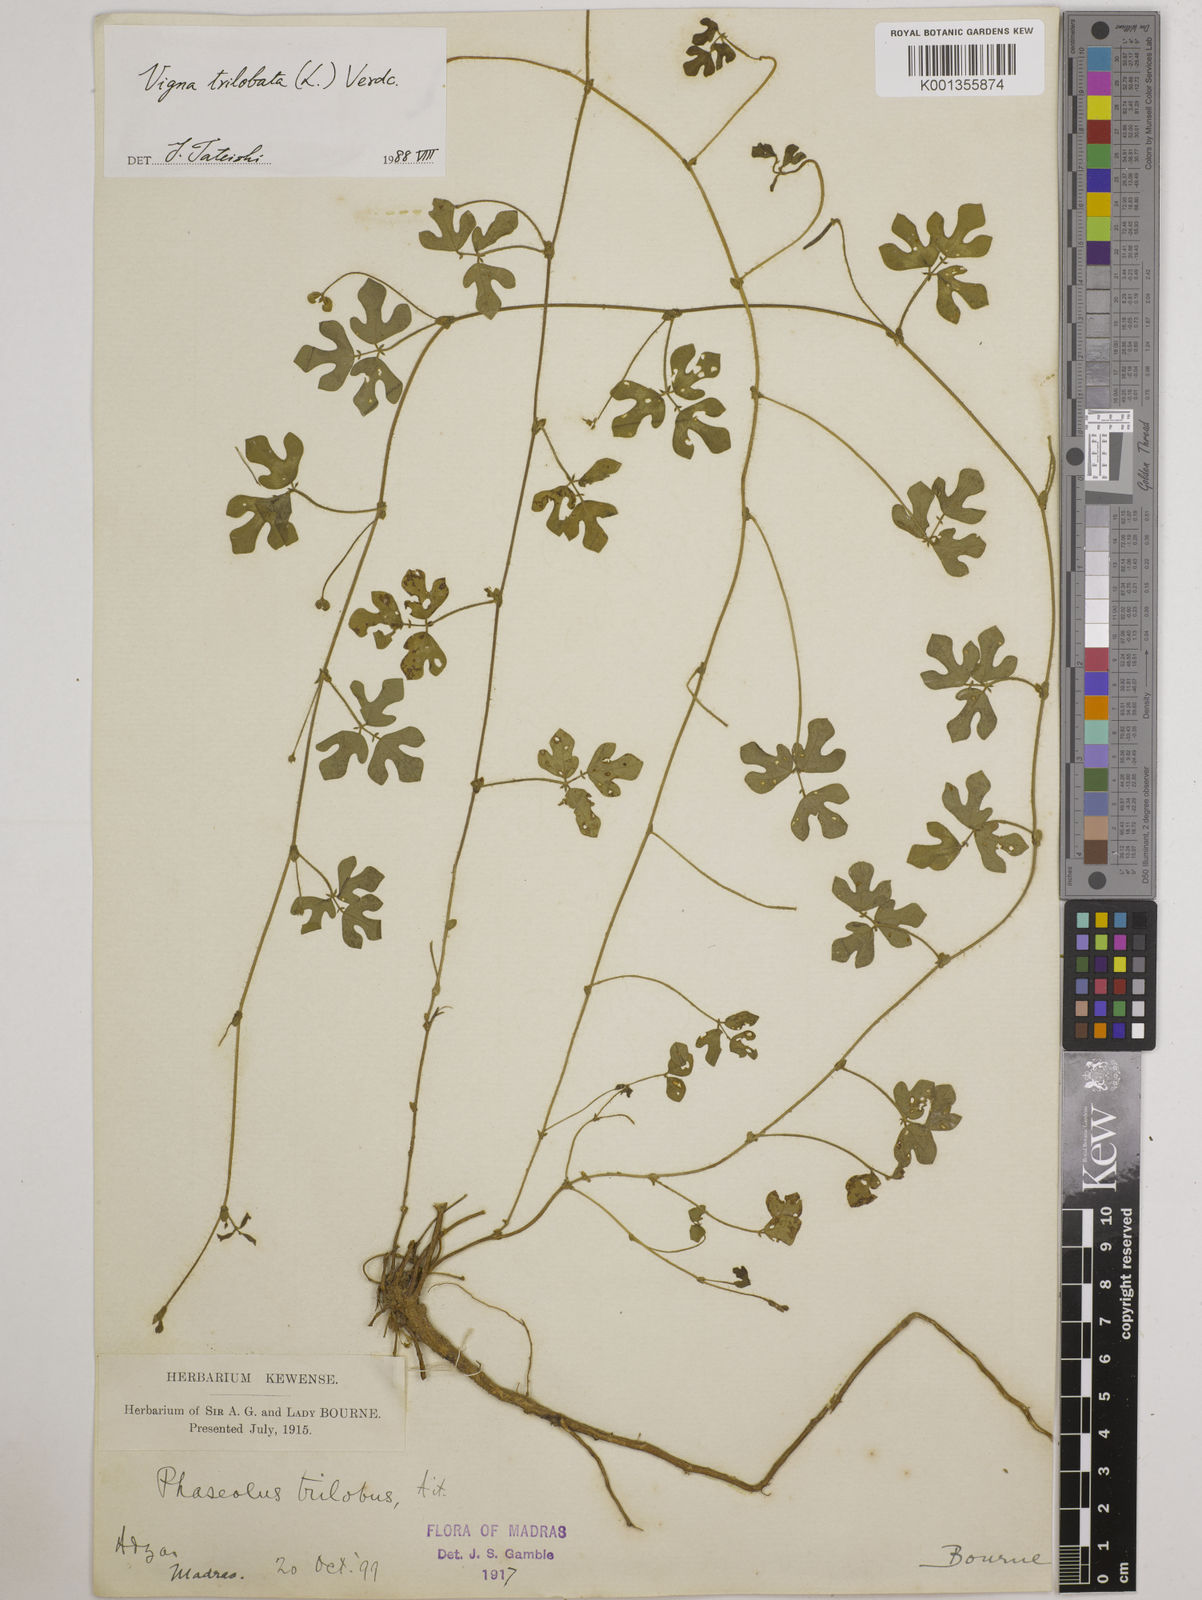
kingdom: Plantae
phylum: Tracheophyta
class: Magnoliopsida
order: Fabales
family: Fabaceae
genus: Vigna
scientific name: Vigna trilobata
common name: Jungli-bean
